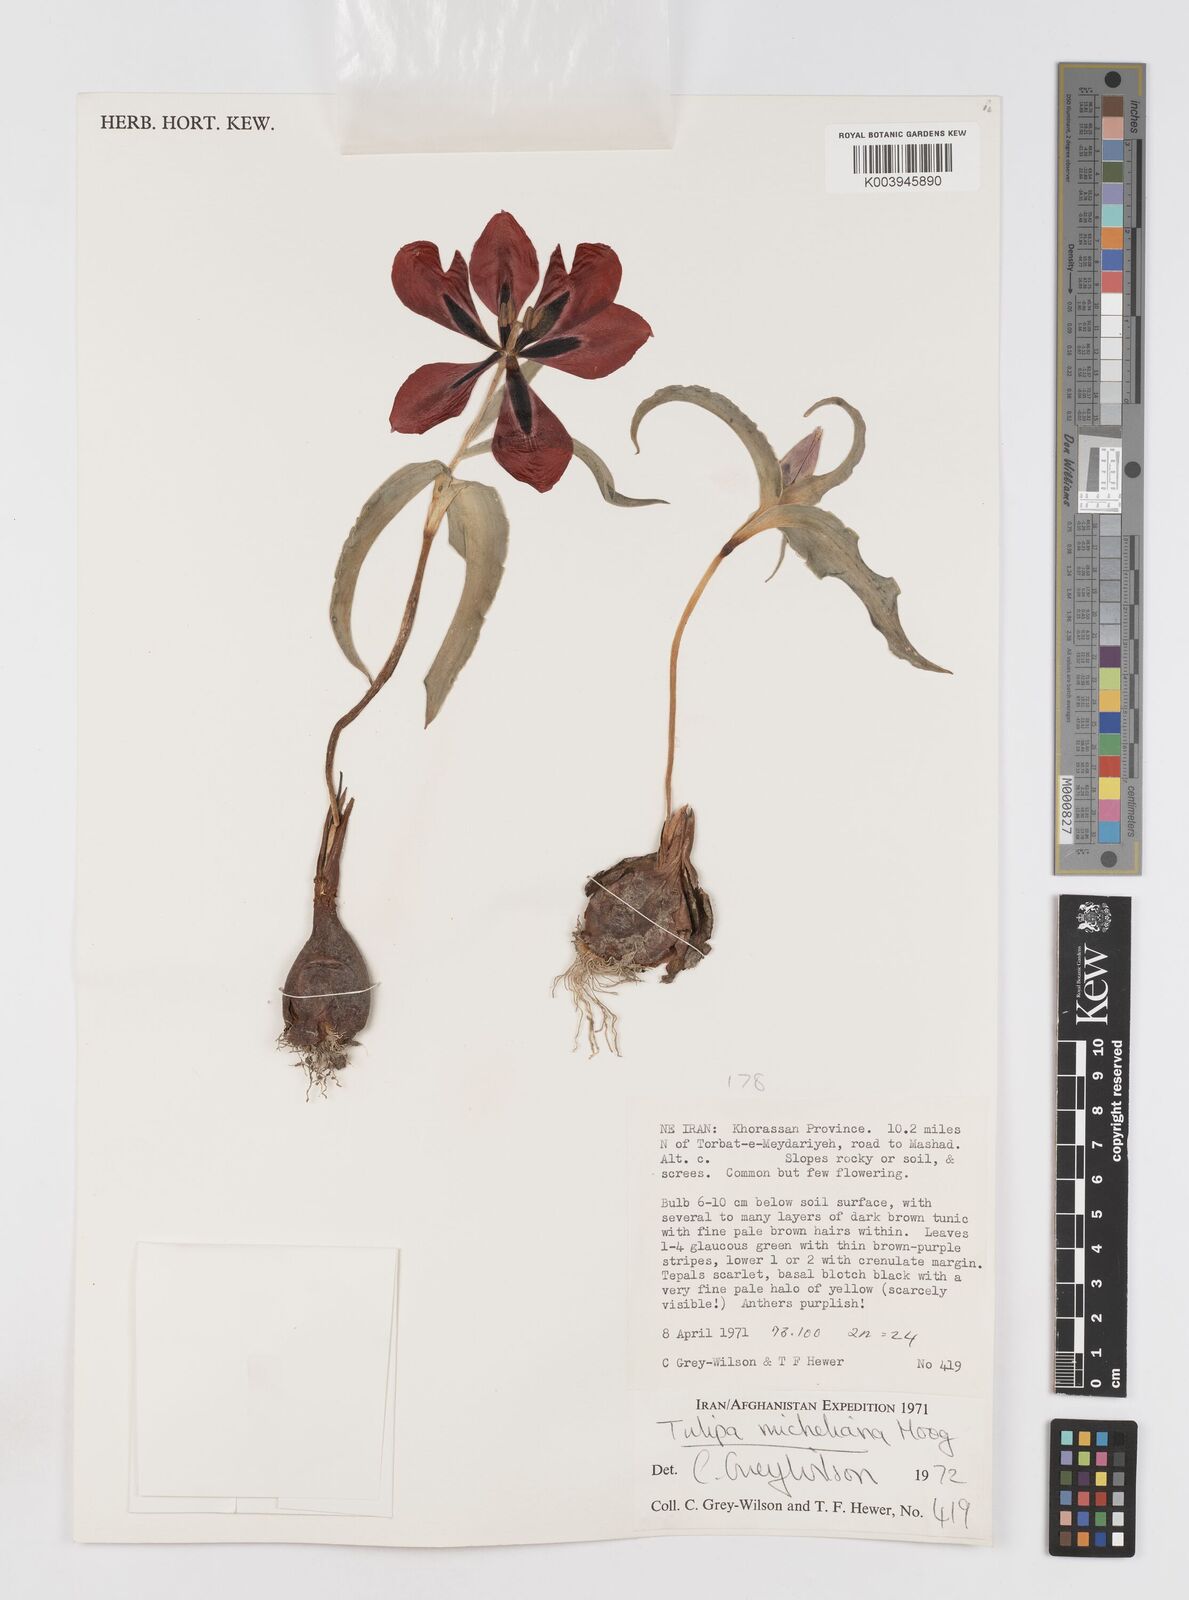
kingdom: Plantae
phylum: Tracheophyta
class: Liliopsida
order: Liliales
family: Liliaceae
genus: Tulipa
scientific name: Tulipa undulatifolia
